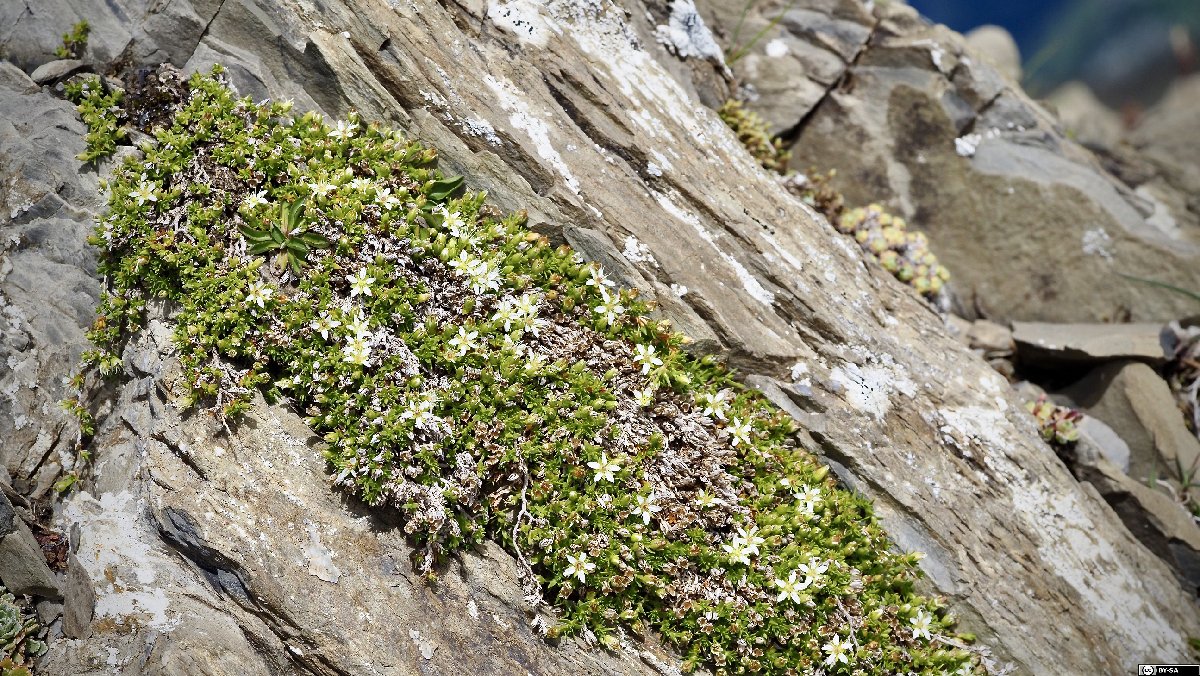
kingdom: Plantae
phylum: Tracheophyta
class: Magnoliopsida
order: Caryophyllales
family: Caryophyllaceae
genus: Facchinia
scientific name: Facchinia rupestris
